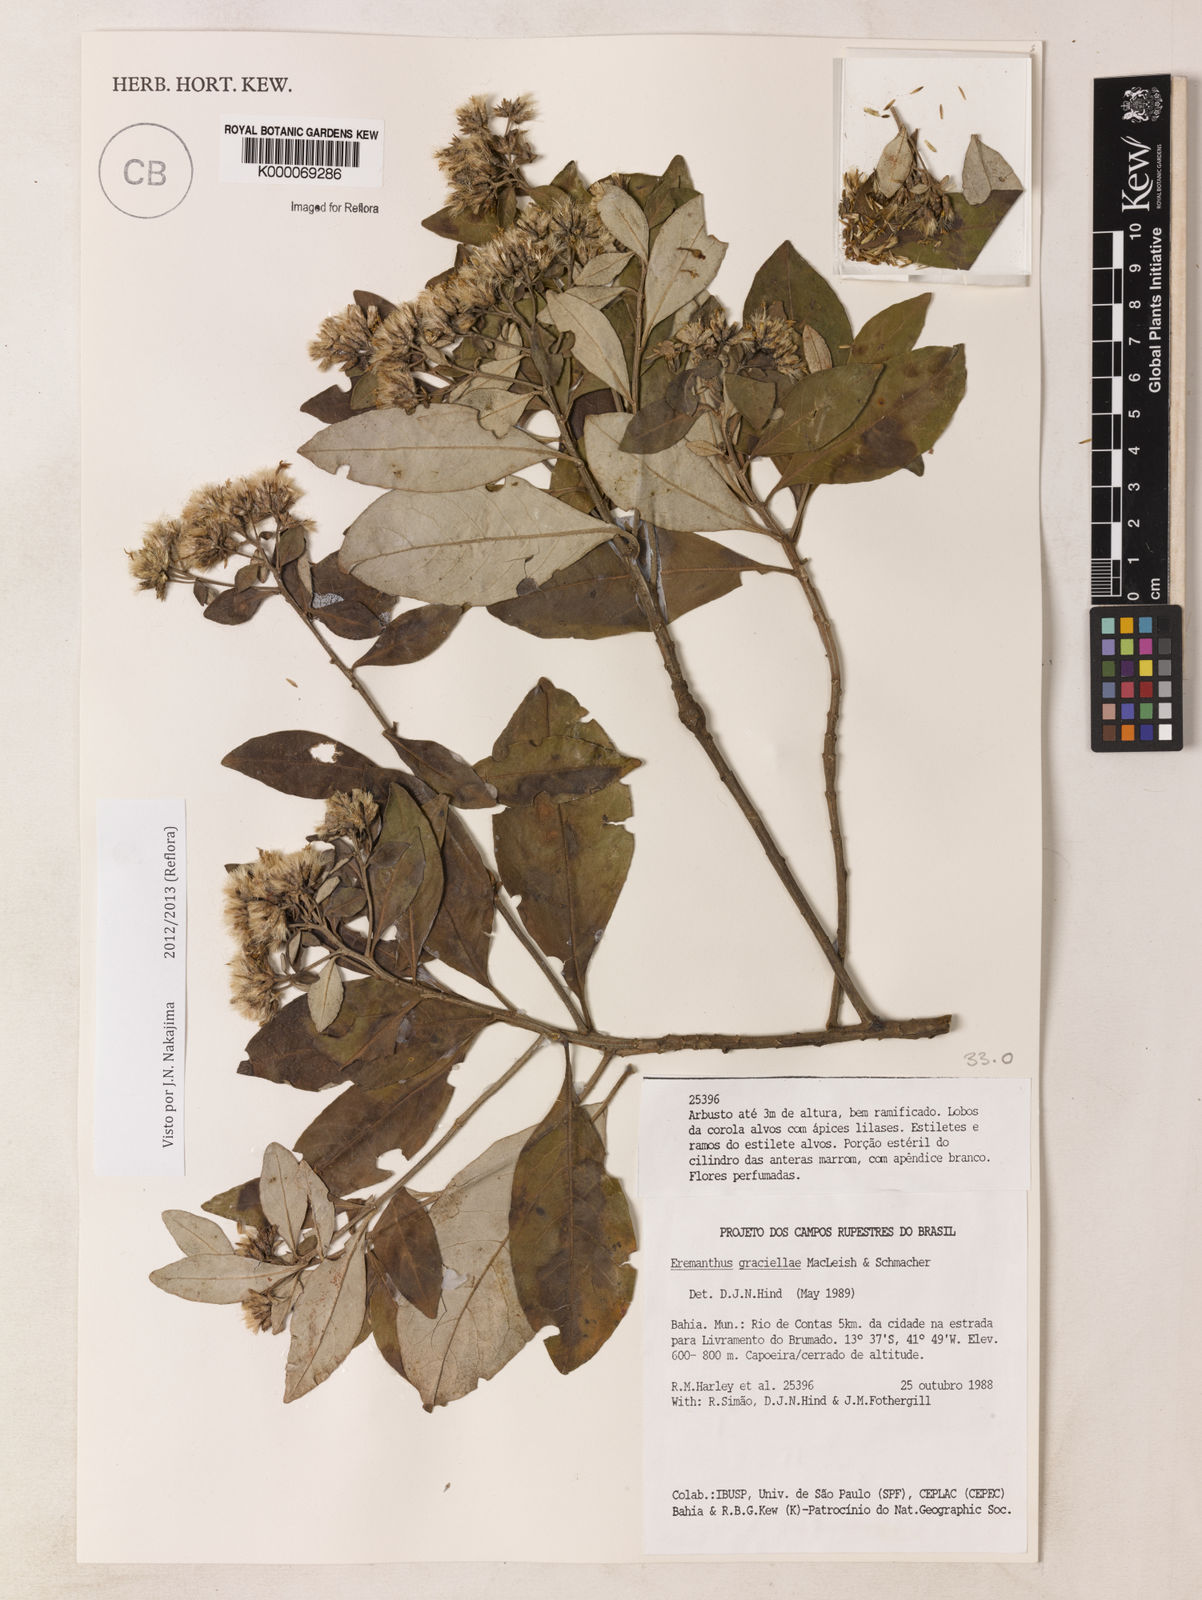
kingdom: Plantae
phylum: Tracheophyta
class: Magnoliopsida
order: Asterales
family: Asteraceae
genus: Eremanthus
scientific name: Eremanthus capitatus
